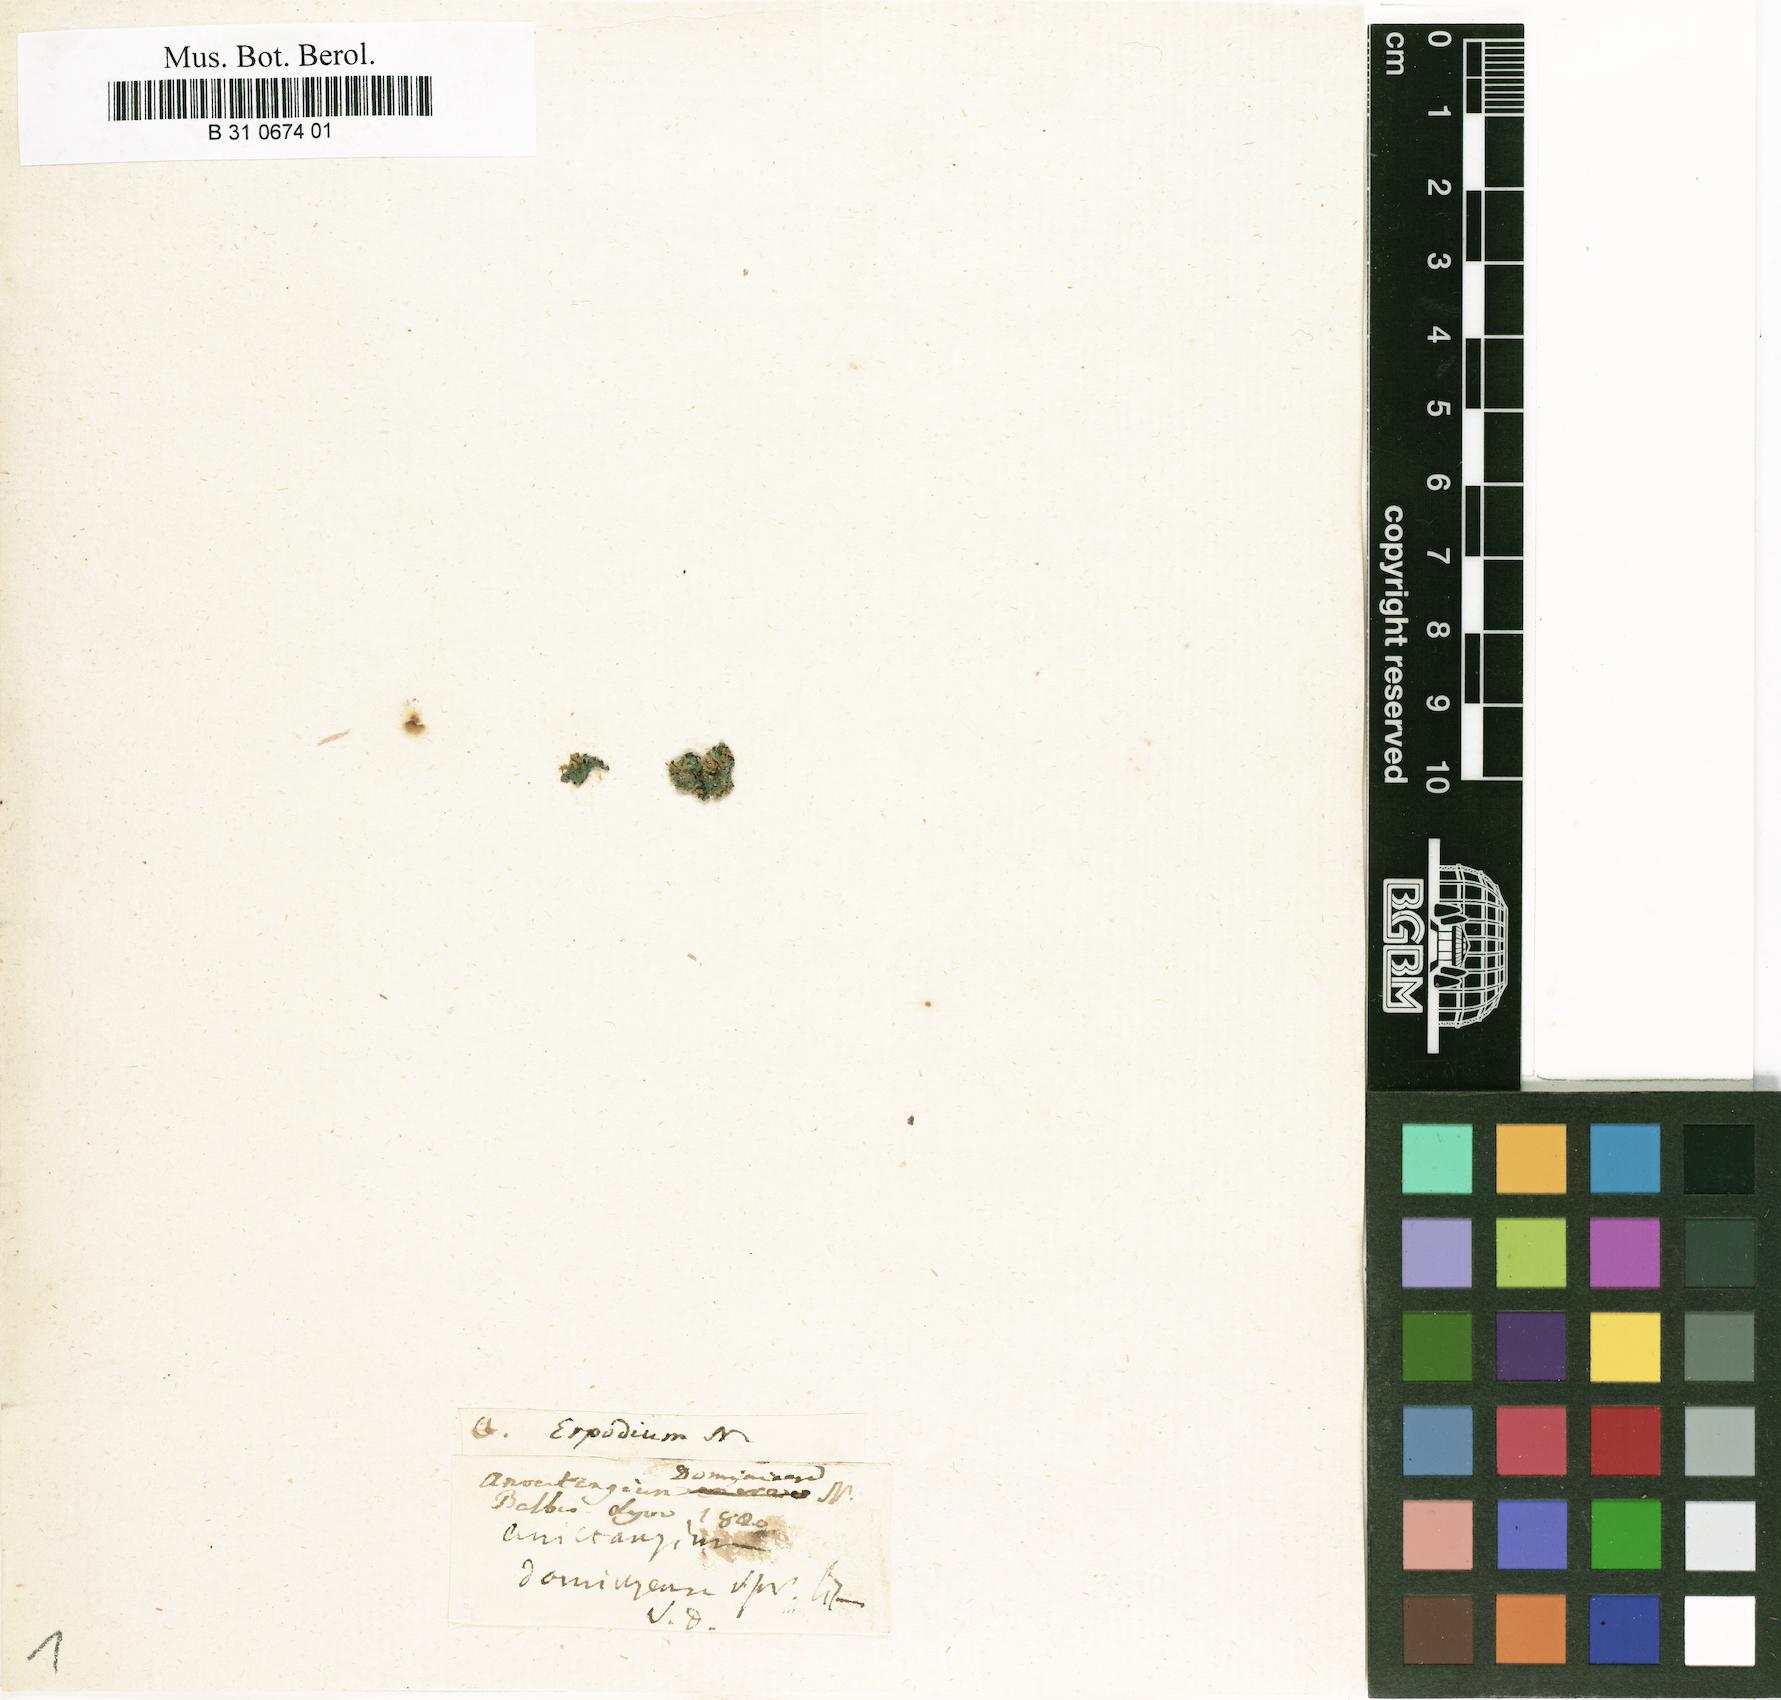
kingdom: Plantae
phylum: Bryophyta
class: Bryopsida
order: Dicranales
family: Erpodiaceae
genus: Erpodium
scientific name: Erpodium domingense
